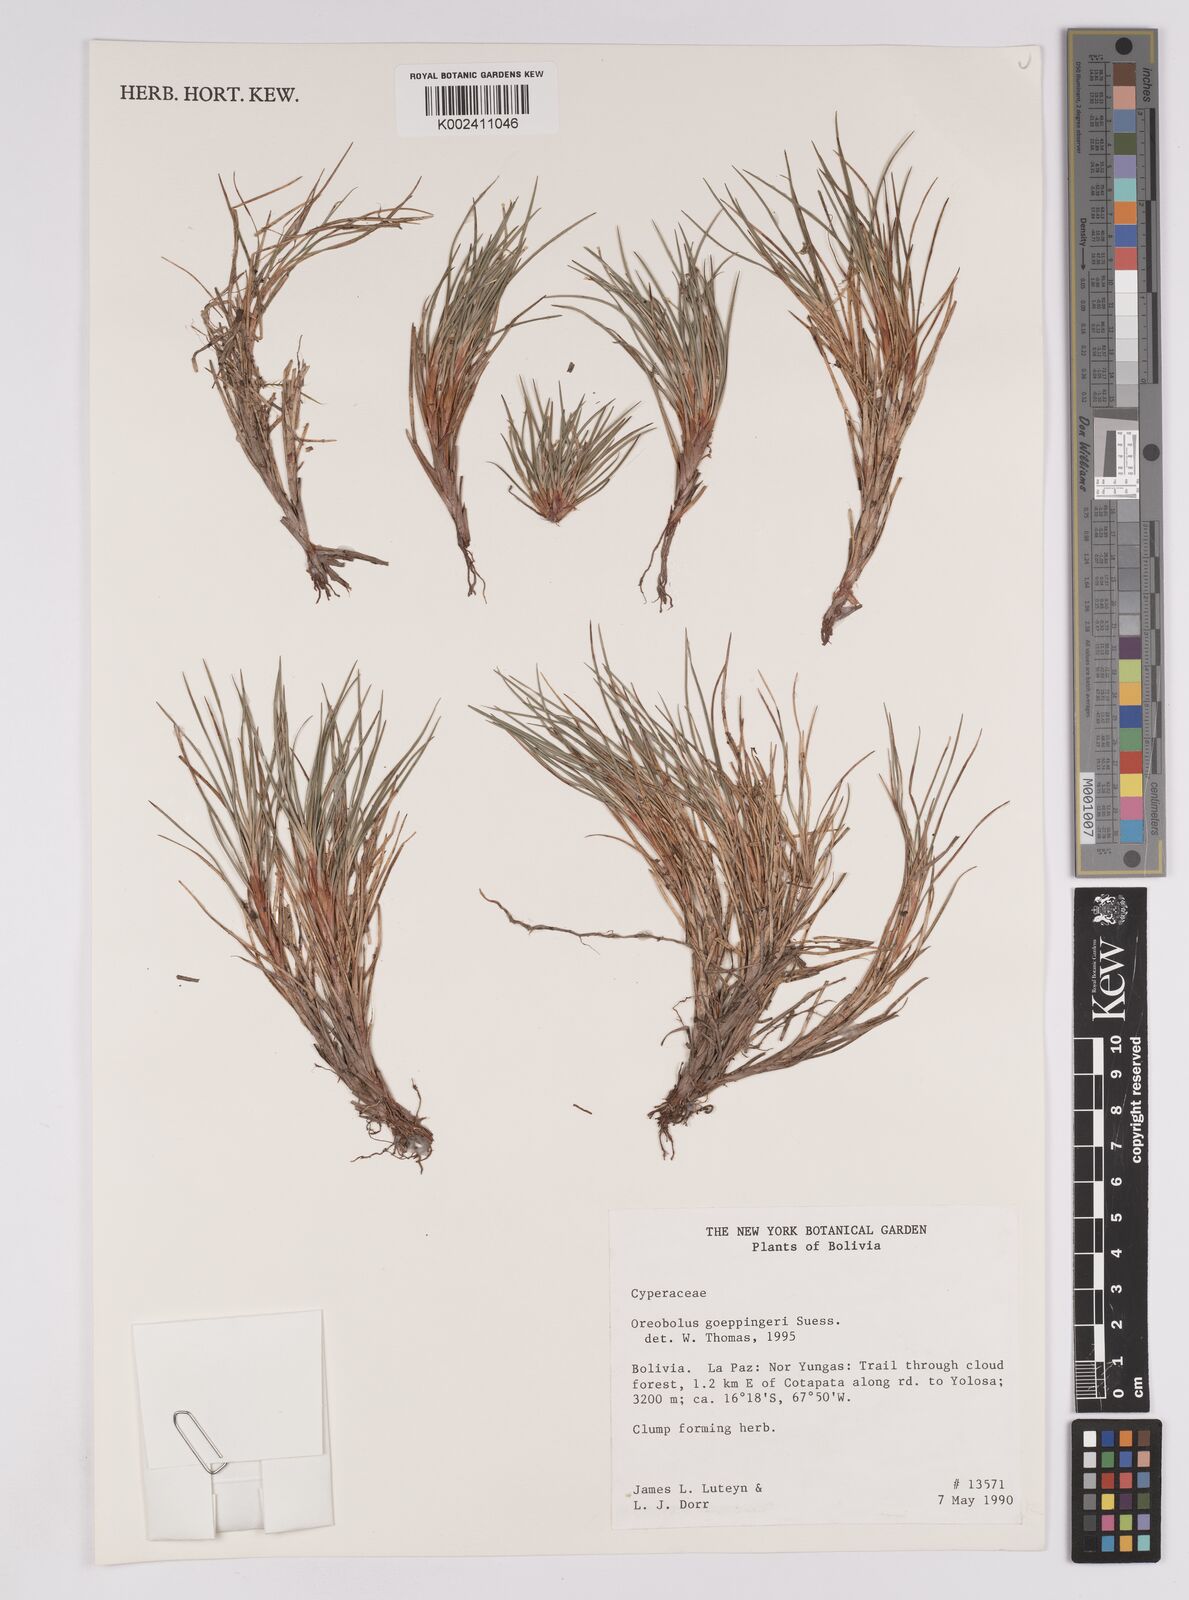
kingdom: Plantae
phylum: Tracheophyta
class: Liliopsida
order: Poales
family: Cyperaceae
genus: Oreobolus
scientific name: Oreobolus goeppingeri
